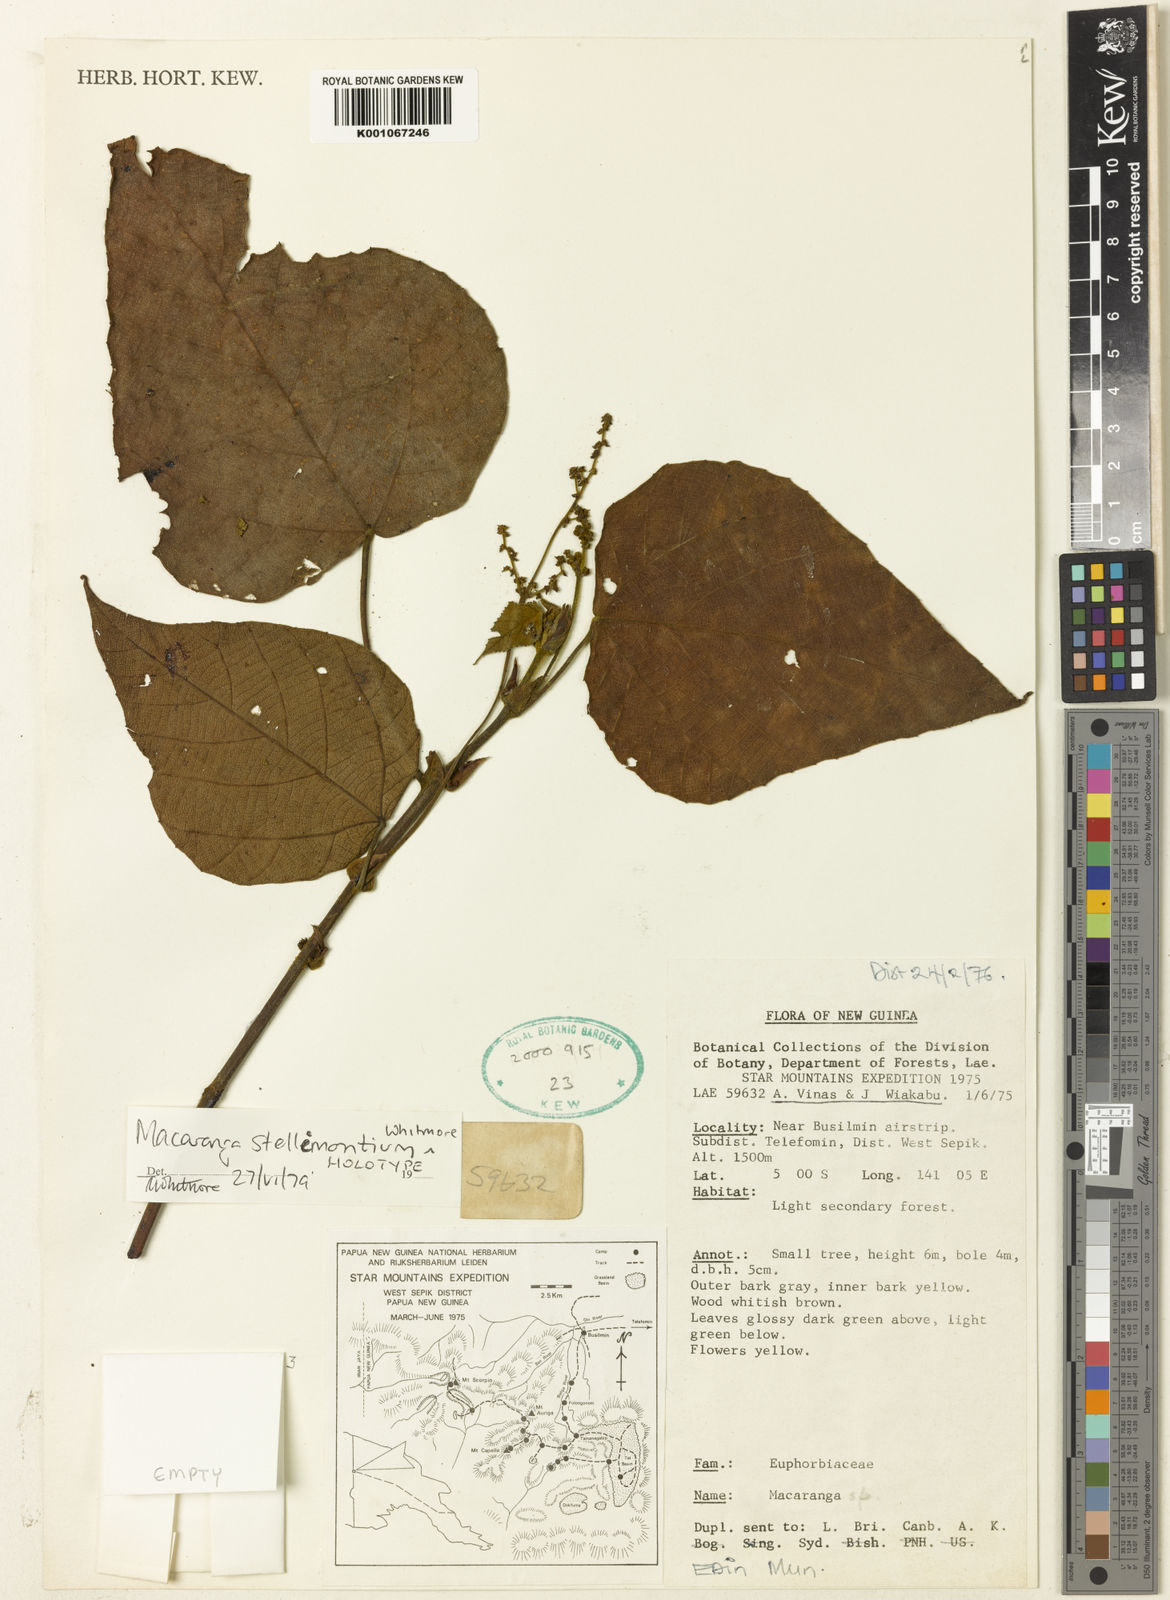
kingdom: Plantae
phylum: Tracheophyta
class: Magnoliopsida
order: Malpighiales
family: Euphorbiaceae
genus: Macaranga
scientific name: Macaranga stellimontium
